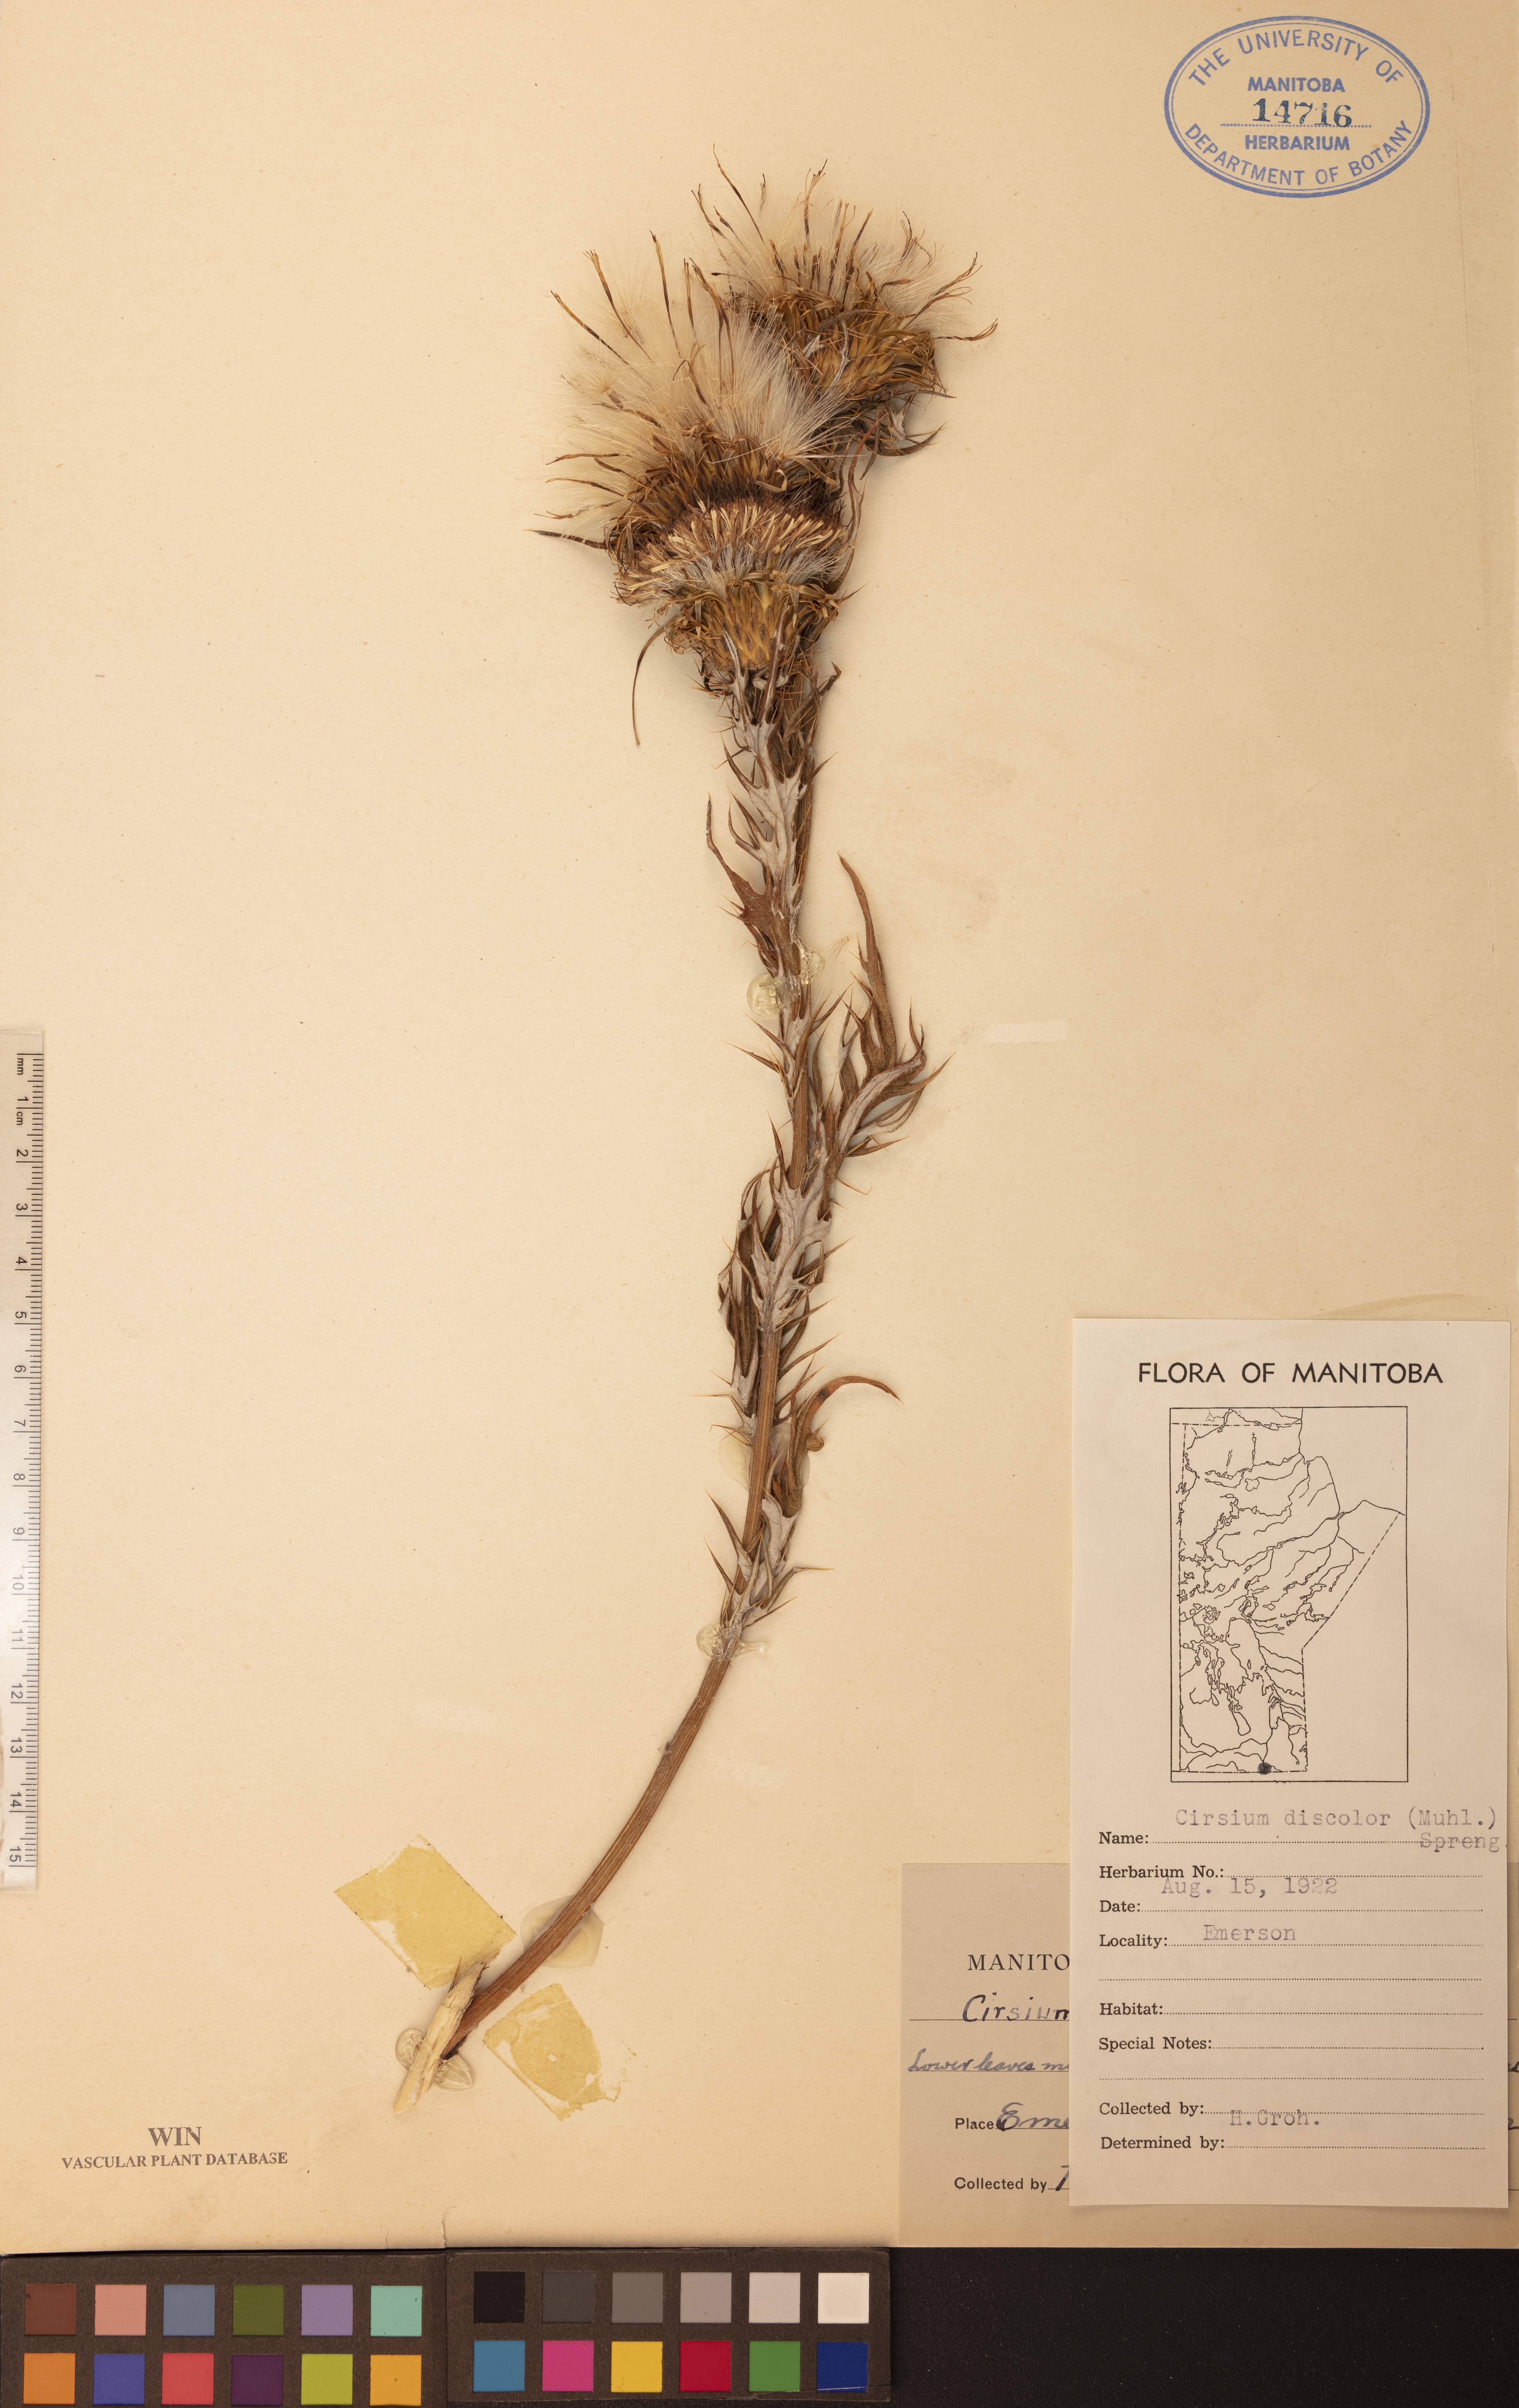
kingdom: Plantae
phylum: Tracheophyta
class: Magnoliopsida
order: Asterales
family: Asteraceae
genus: Cirsium
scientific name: Cirsium discolor
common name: Field thistle
